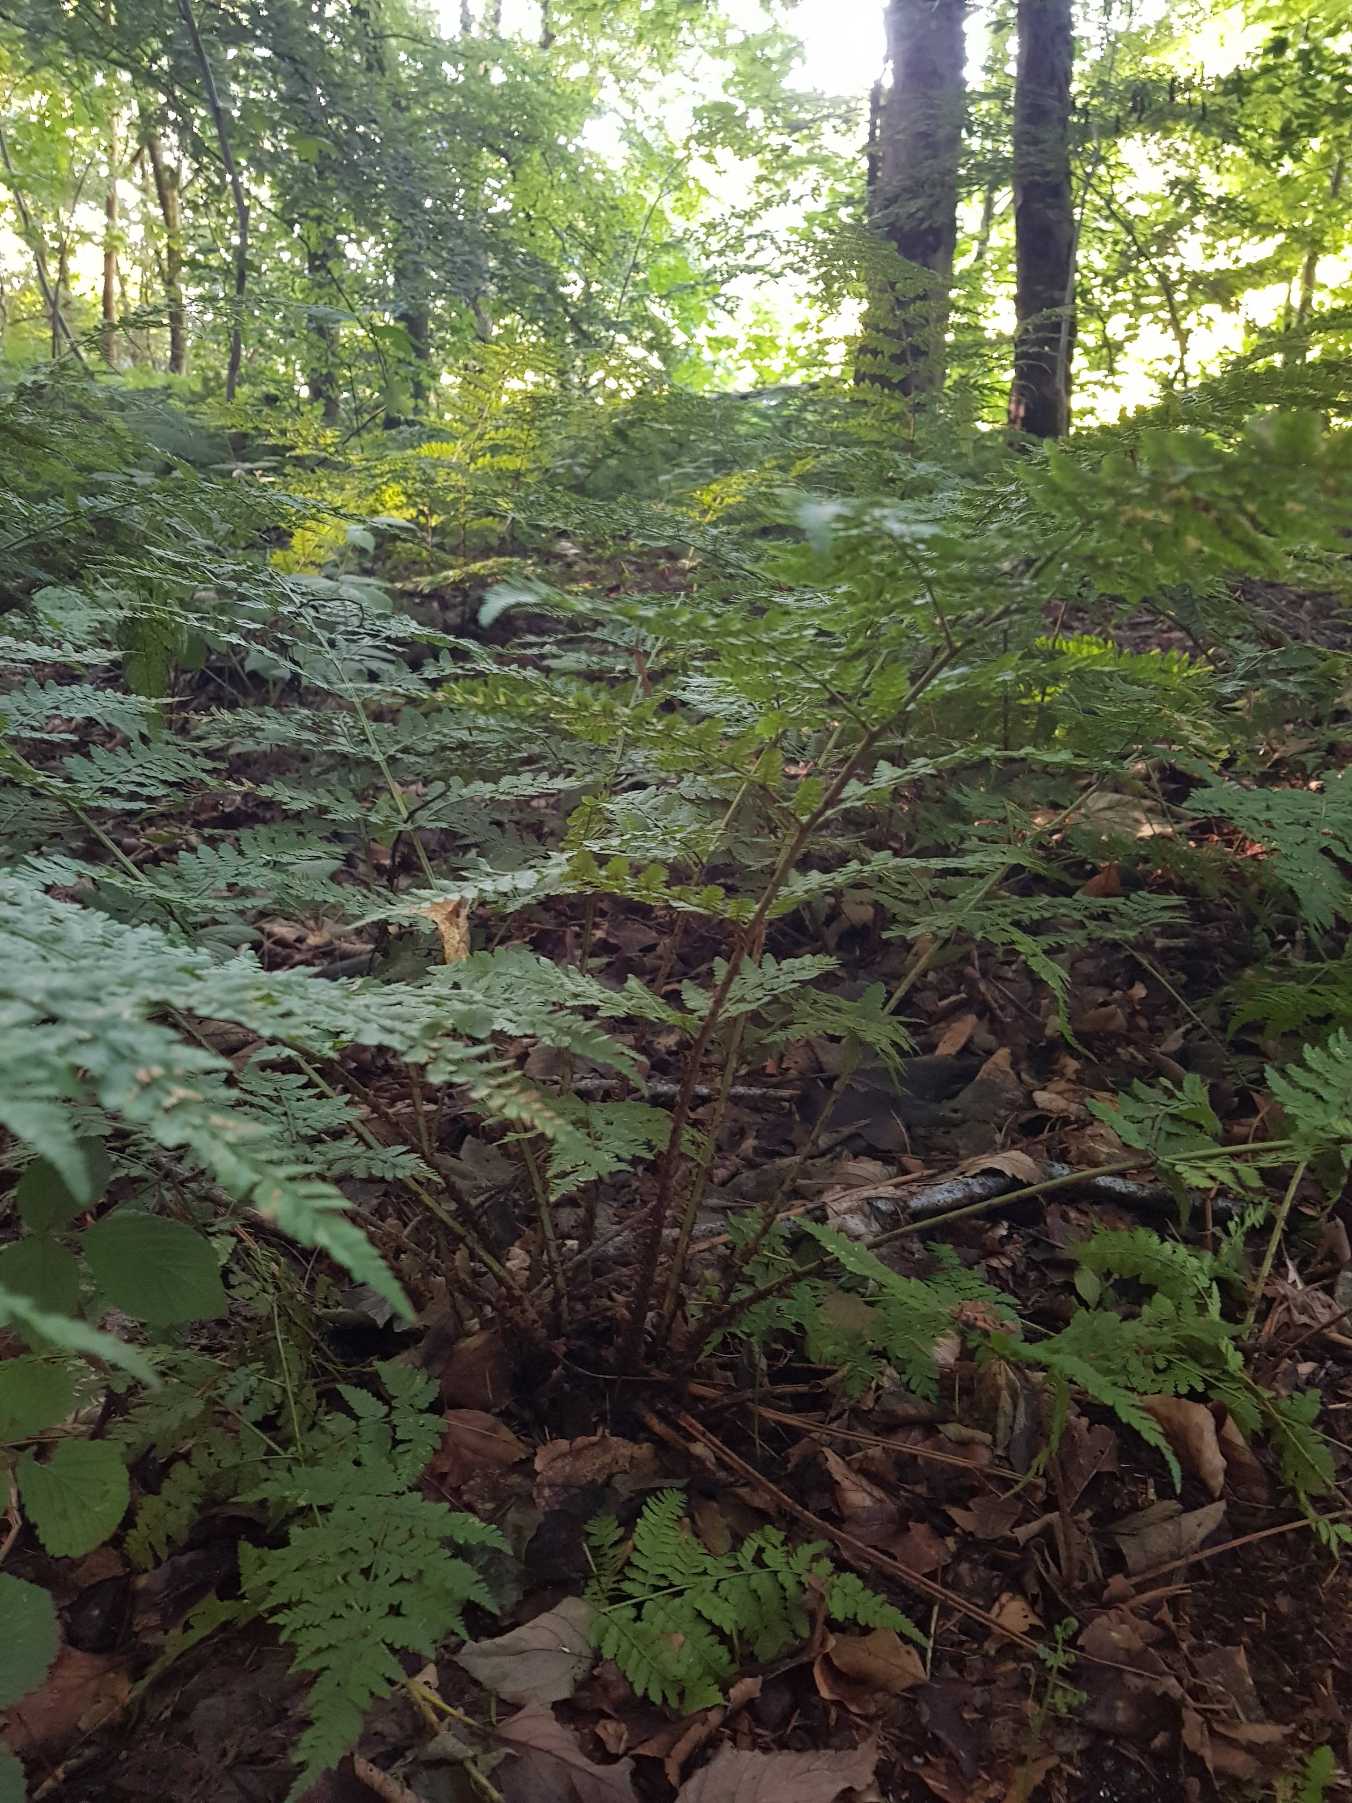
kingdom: Plantae
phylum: Tracheophyta
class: Polypodiopsida
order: Polypodiales
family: Dryopteridaceae
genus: Dryopteris
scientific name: Dryopteris dilatata
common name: Bredbladet mangeløv
